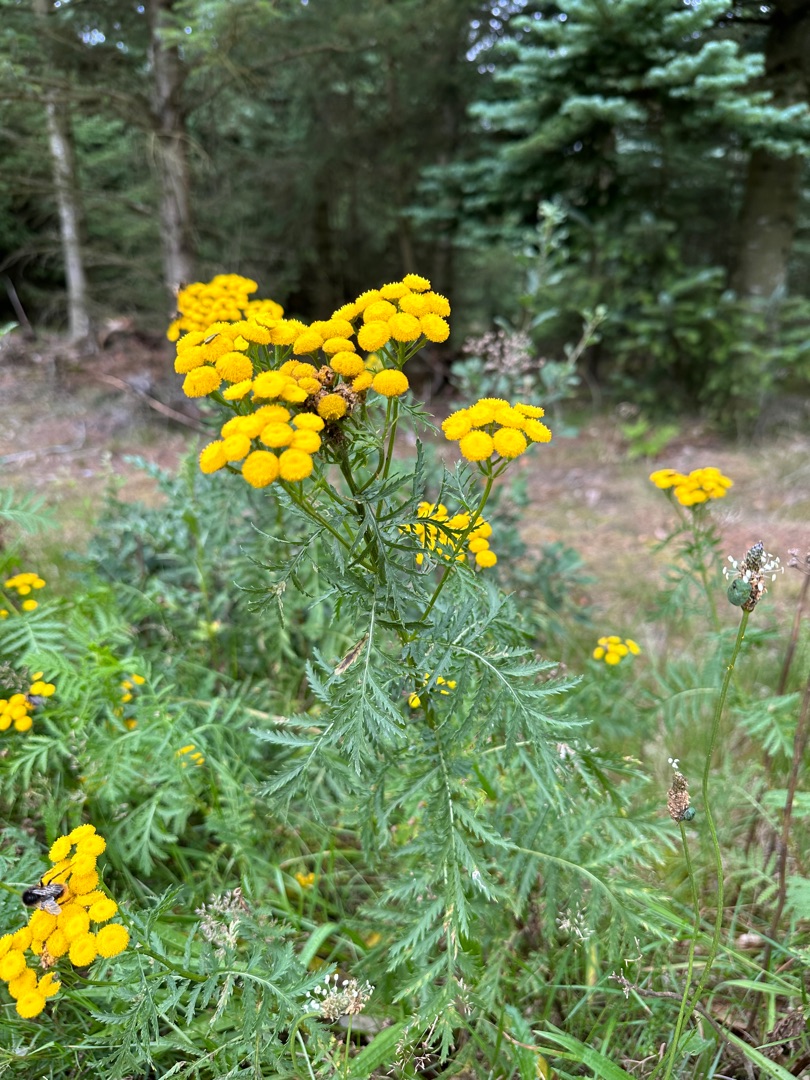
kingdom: Plantae
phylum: Tracheophyta
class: Magnoliopsida
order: Asterales
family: Asteraceae
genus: Tanacetum
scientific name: Tanacetum vulgare
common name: Rejnfan
